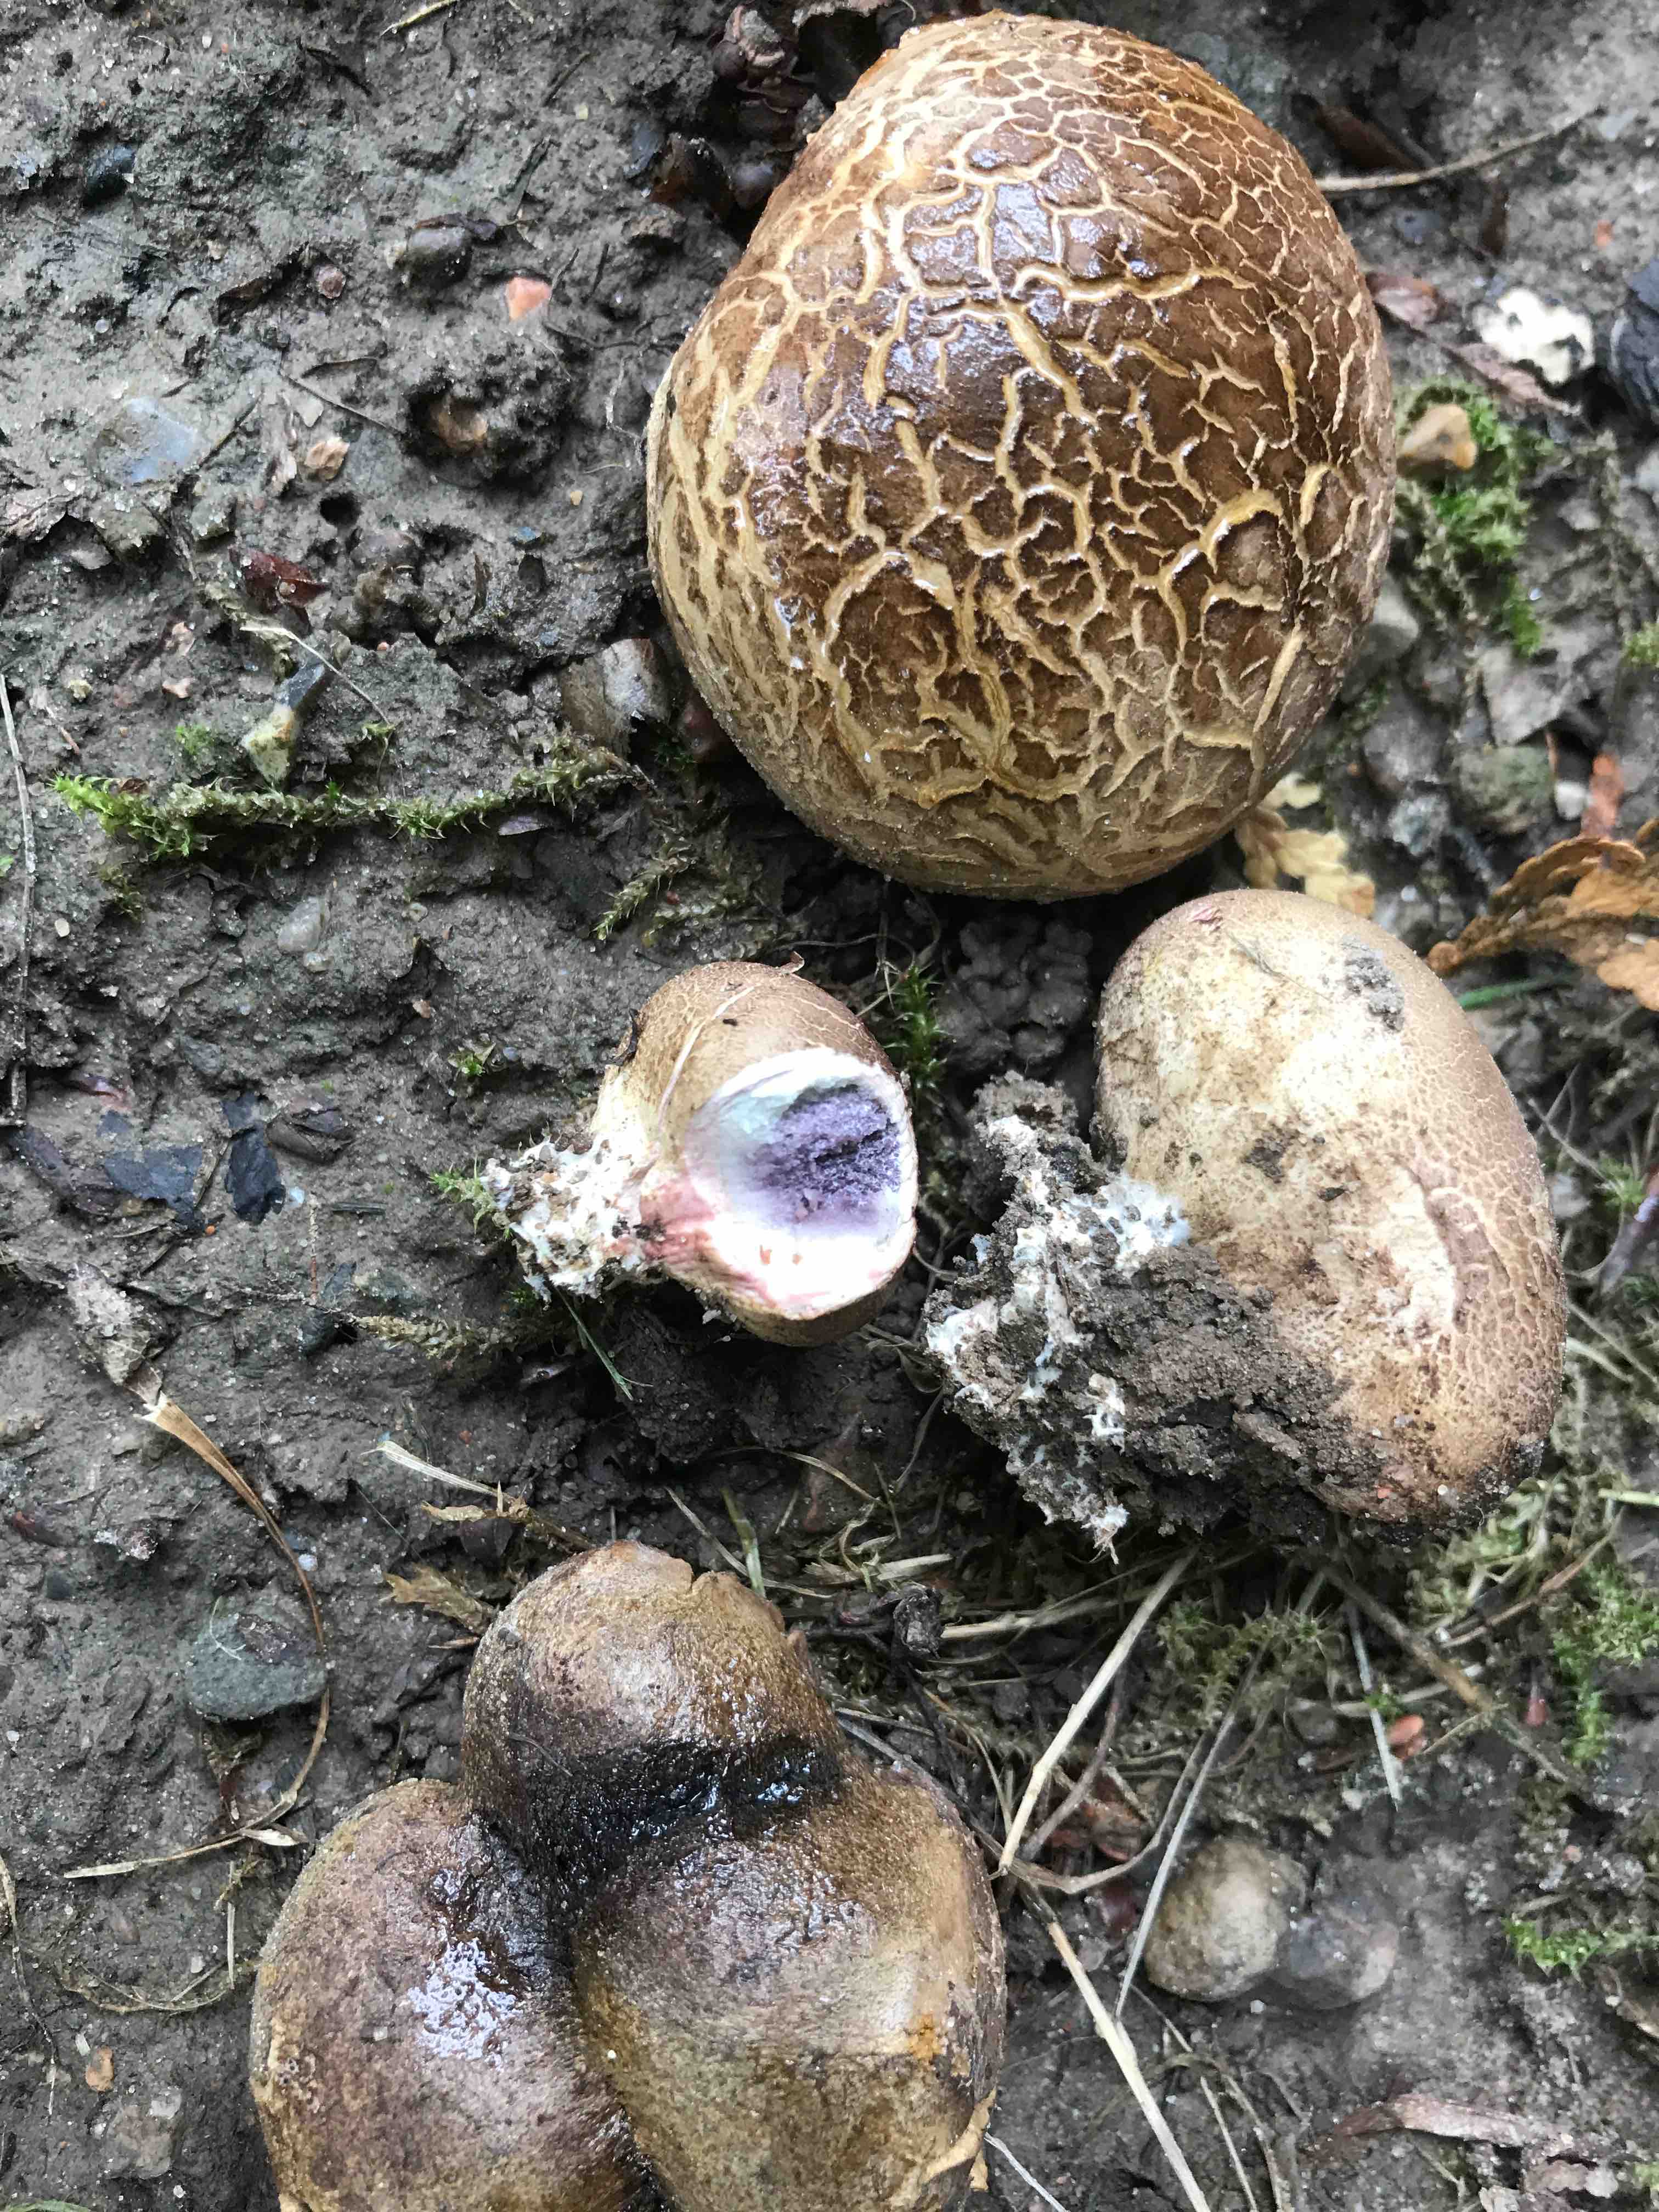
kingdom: Fungi
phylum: Basidiomycota
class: Agaricomycetes
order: Boletales
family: Sclerodermataceae
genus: Scleroderma
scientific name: Scleroderma
